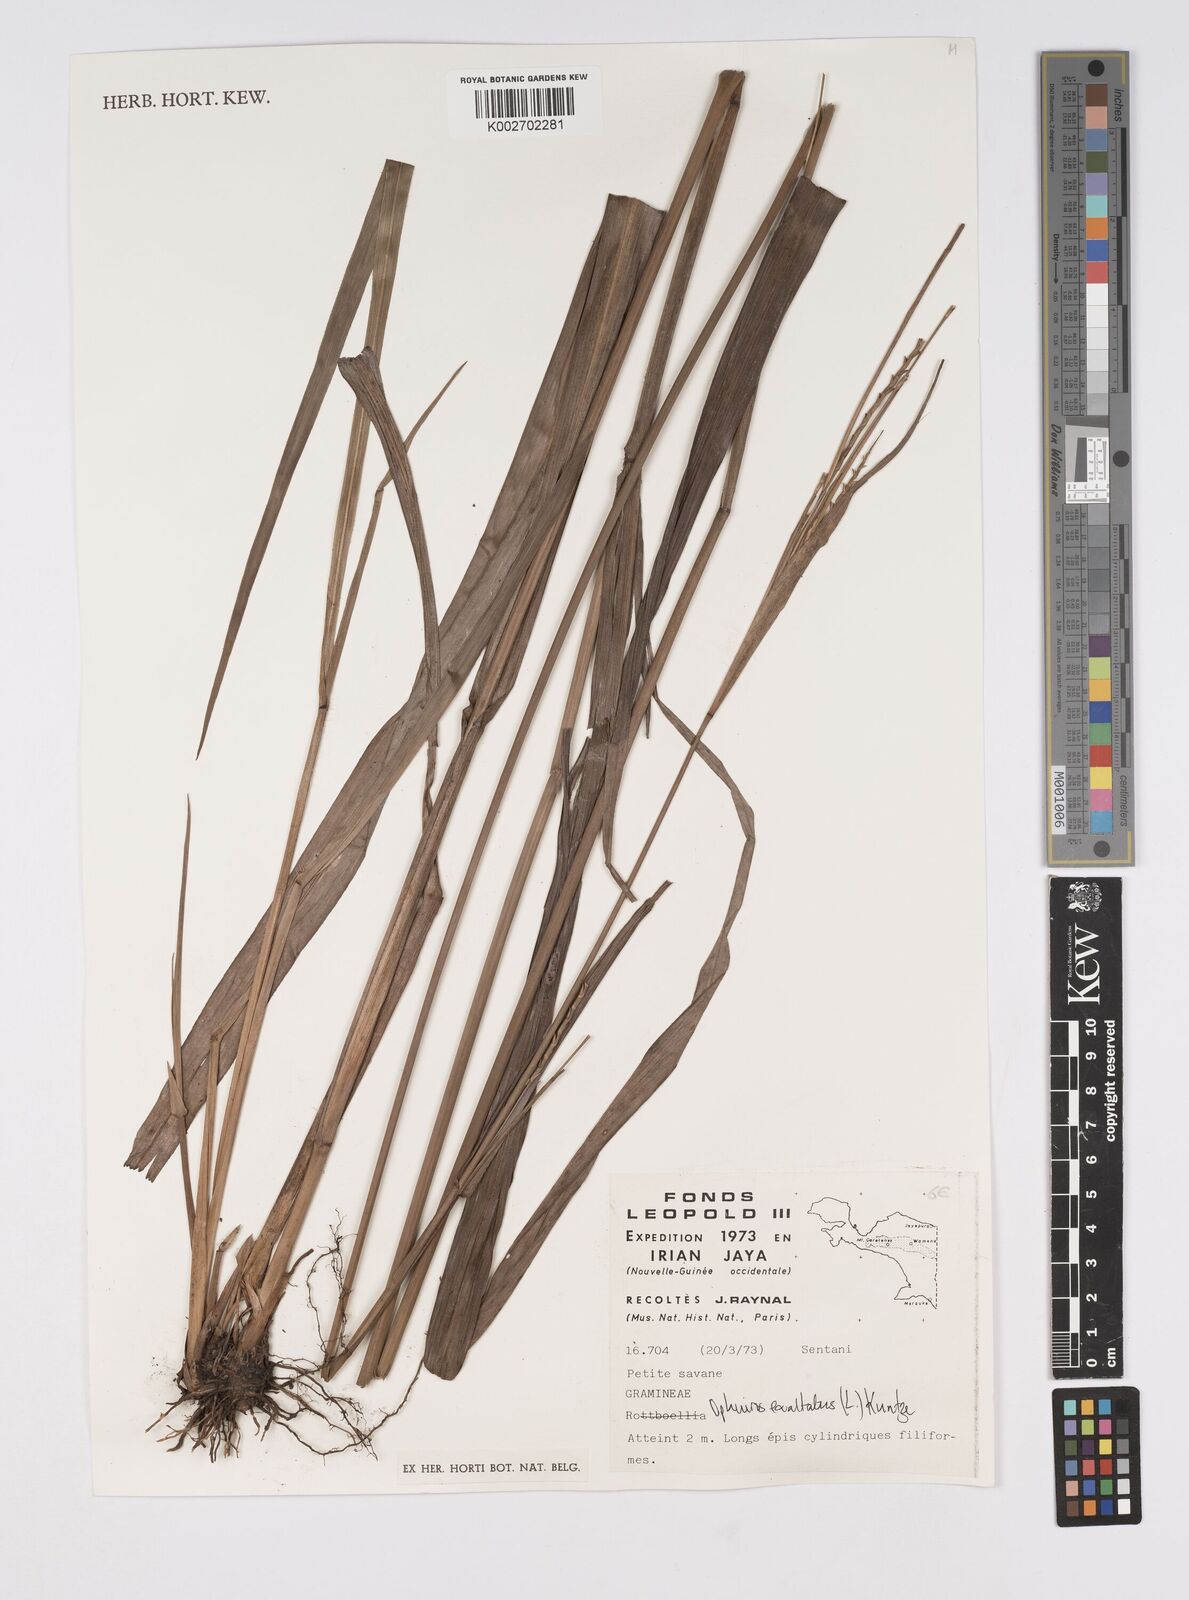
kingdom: Plantae
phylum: Tracheophyta
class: Liliopsida
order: Poales
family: Poaceae
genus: Ophiuros
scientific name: Ophiuros exaltatus
